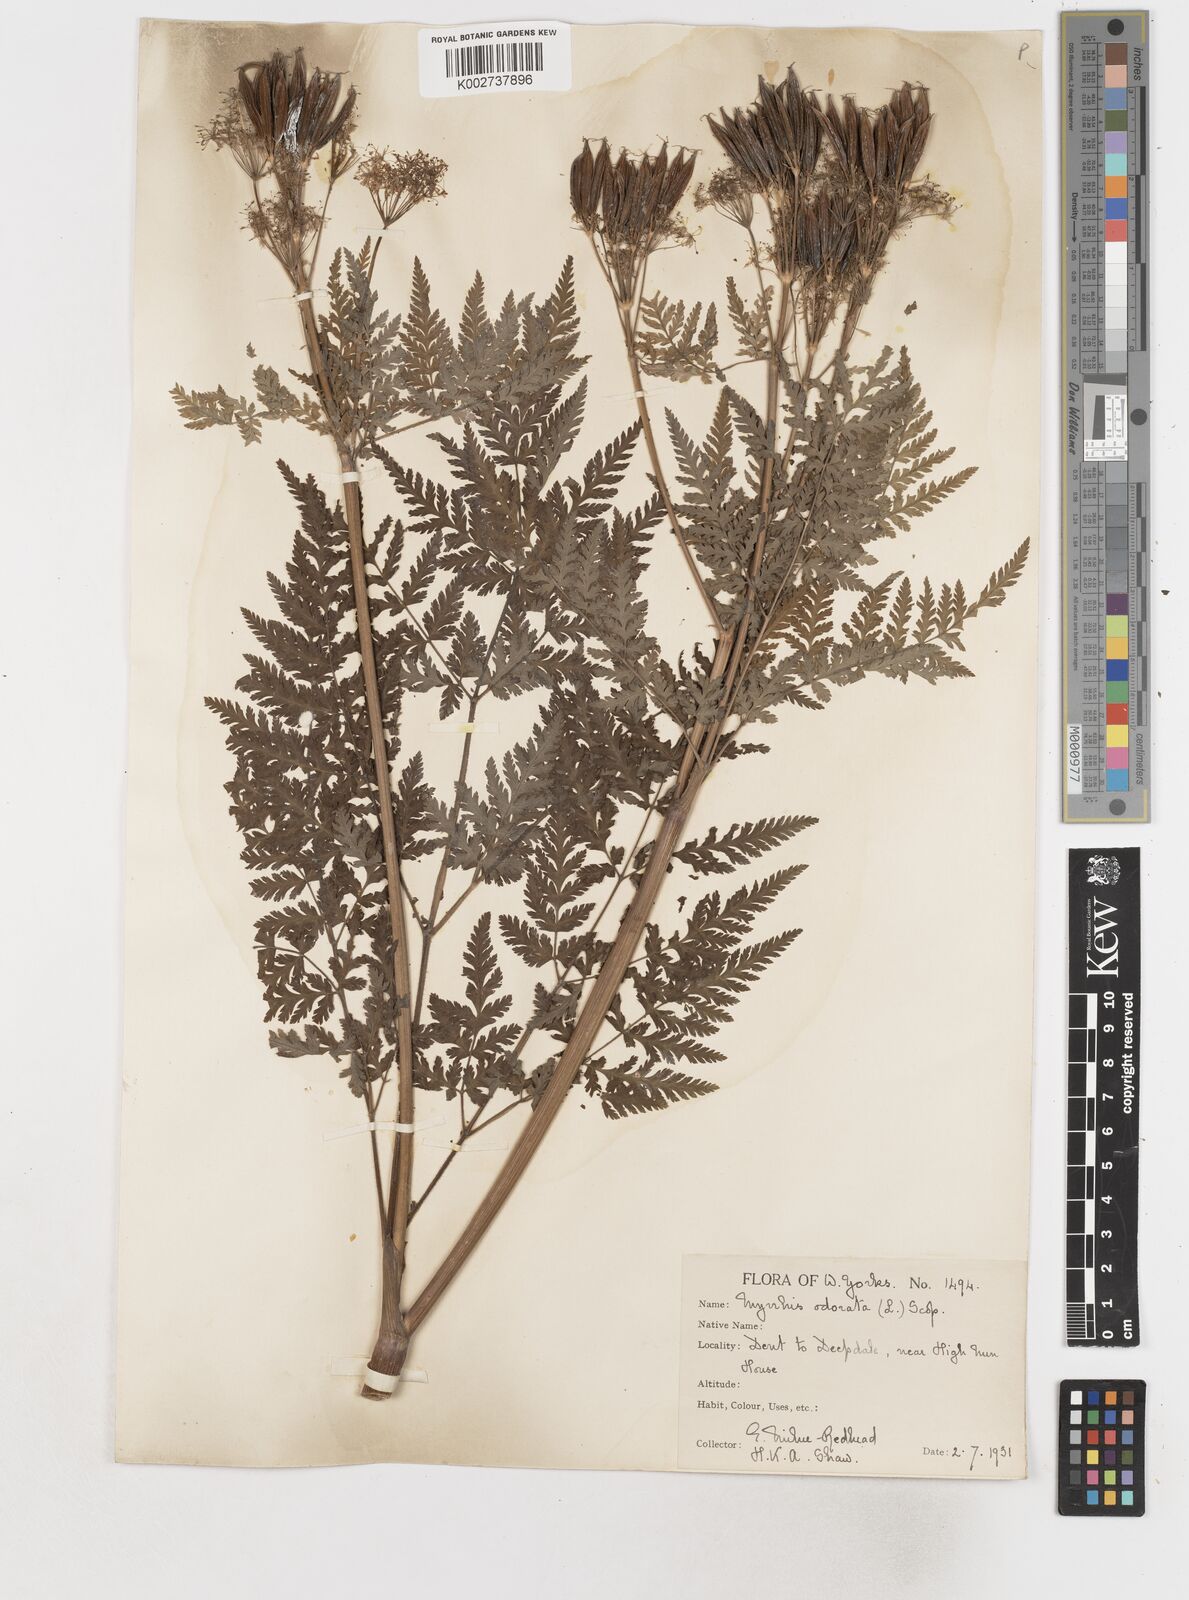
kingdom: Plantae
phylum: Tracheophyta
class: Magnoliopsida
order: Apiales
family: Apiaceae
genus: Myrrhis
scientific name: Myrrhis odorata
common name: Sweet cicely
